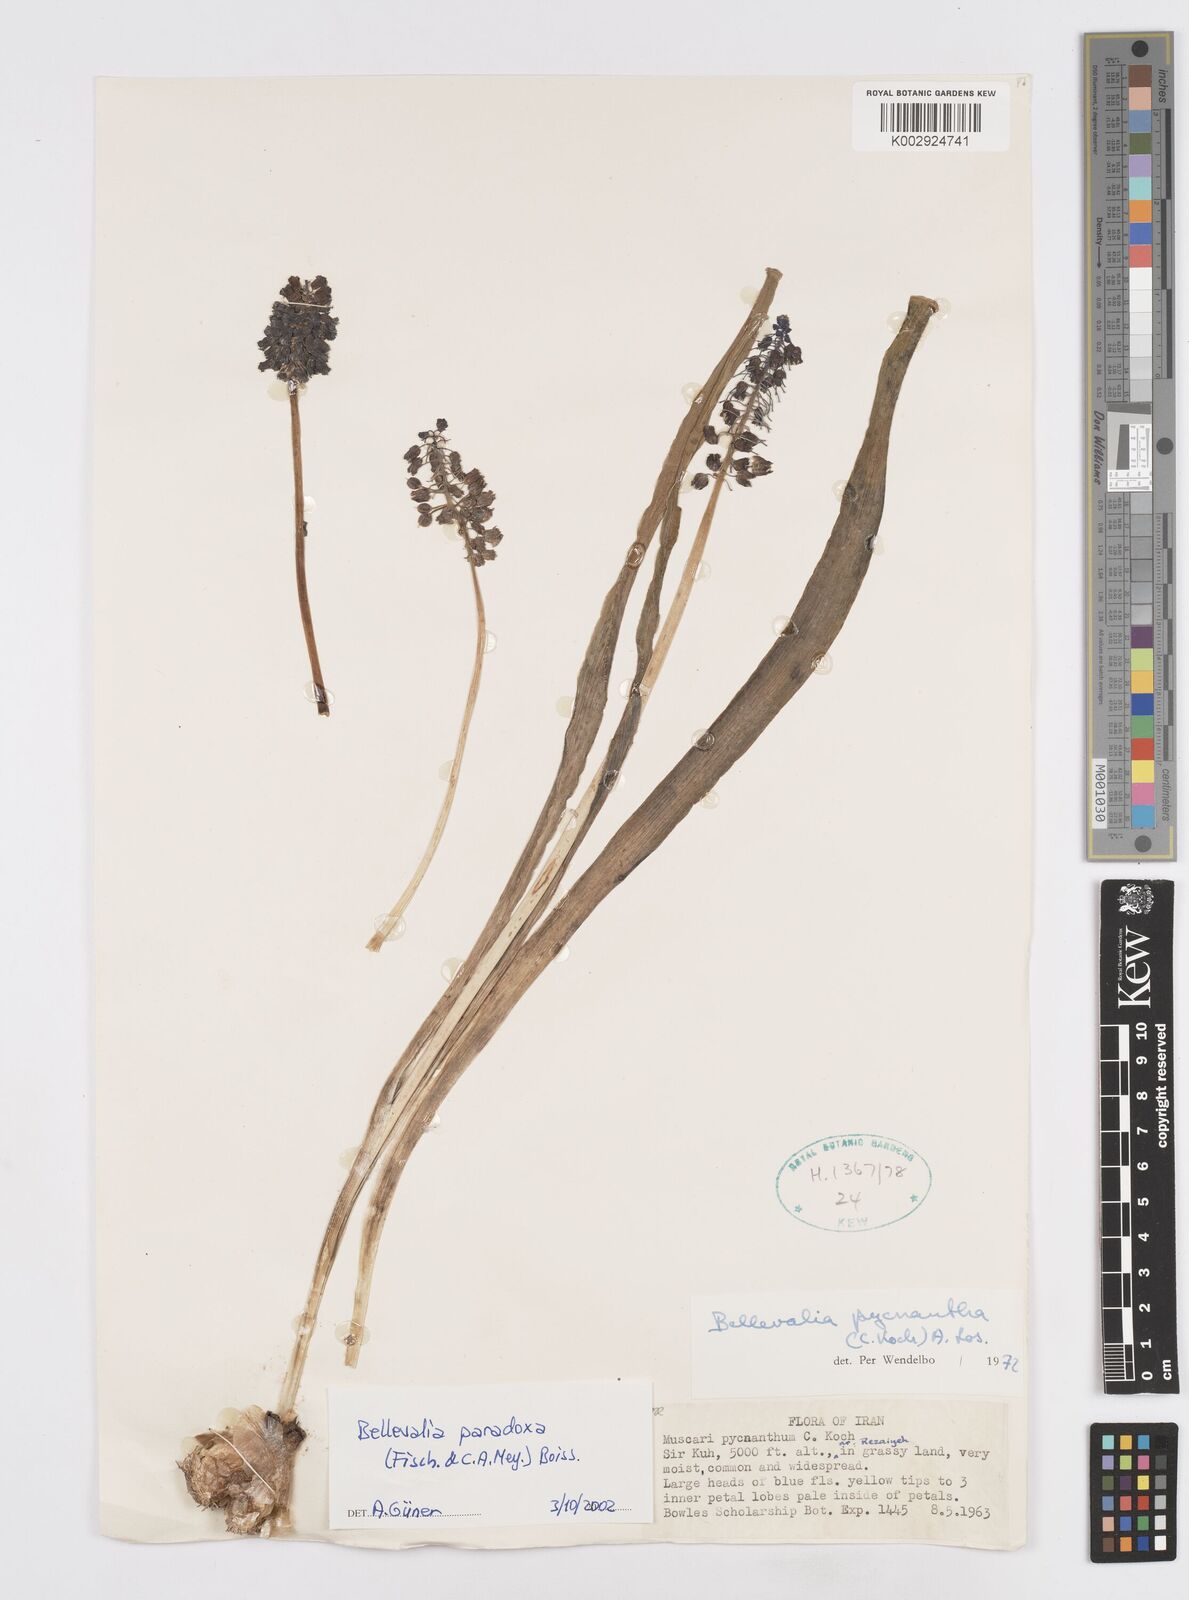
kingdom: Plantae
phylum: Tracheophyta
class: Liliopsida
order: Asparagales
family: Asparagaceae
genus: Bellevalia
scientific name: Bellevalia paradoxa
